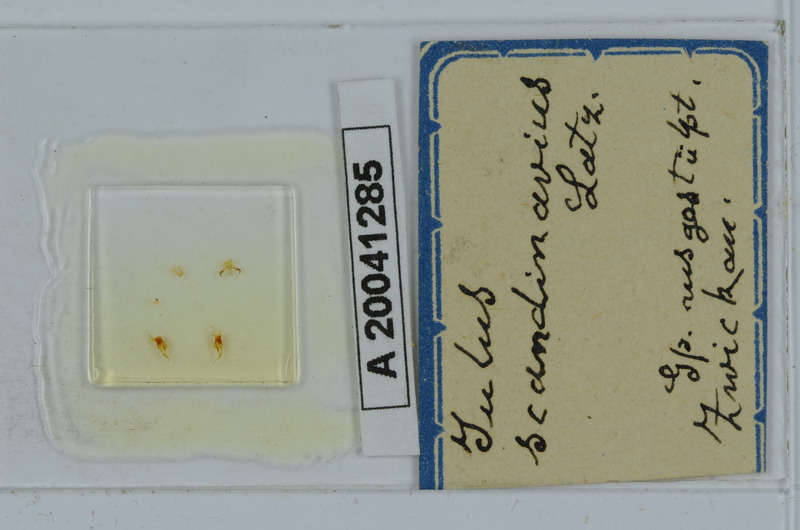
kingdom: Animalia
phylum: Arthropoda
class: Diplopoda
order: Julida
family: Julidae
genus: Julus
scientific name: Julus scandinavius
